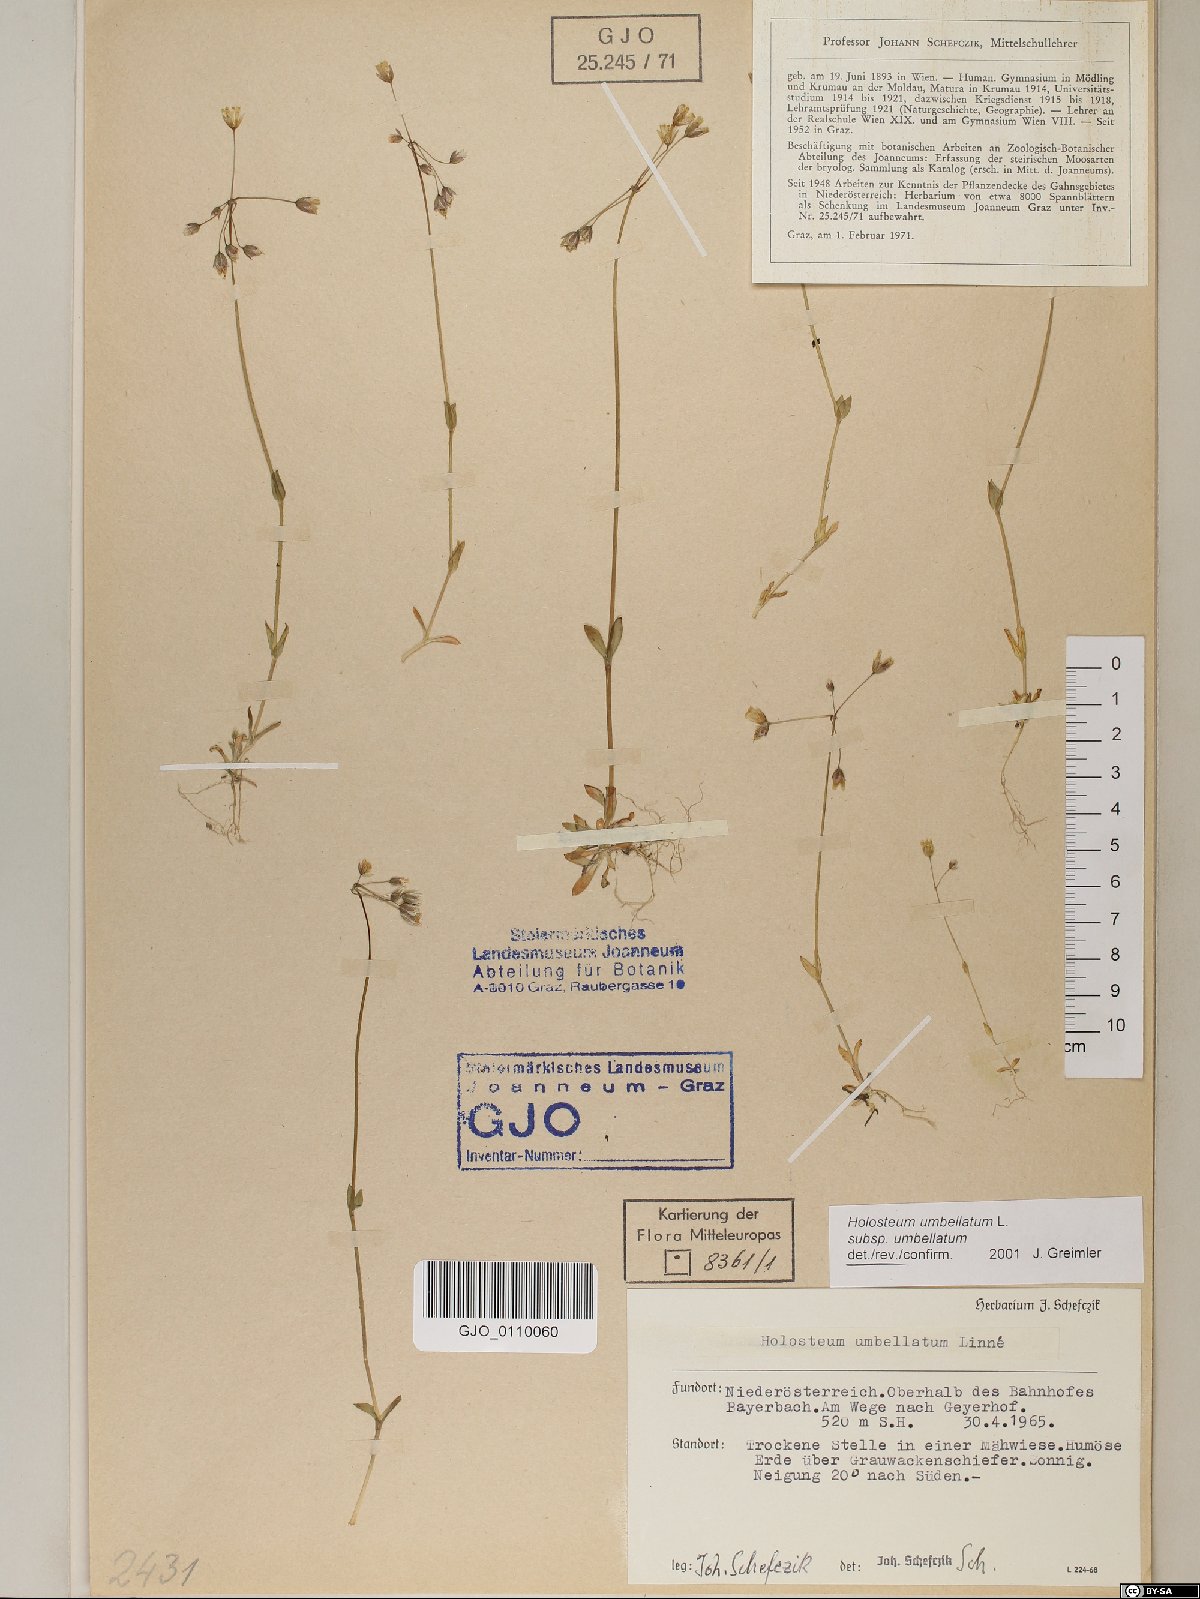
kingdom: Plantae
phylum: Tracheophyta
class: Magnoliopsida
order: Caryophyllales
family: Caryophyllaceae
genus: Holosteum
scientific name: Holosteum umbellatum
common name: Jagged chickweed
